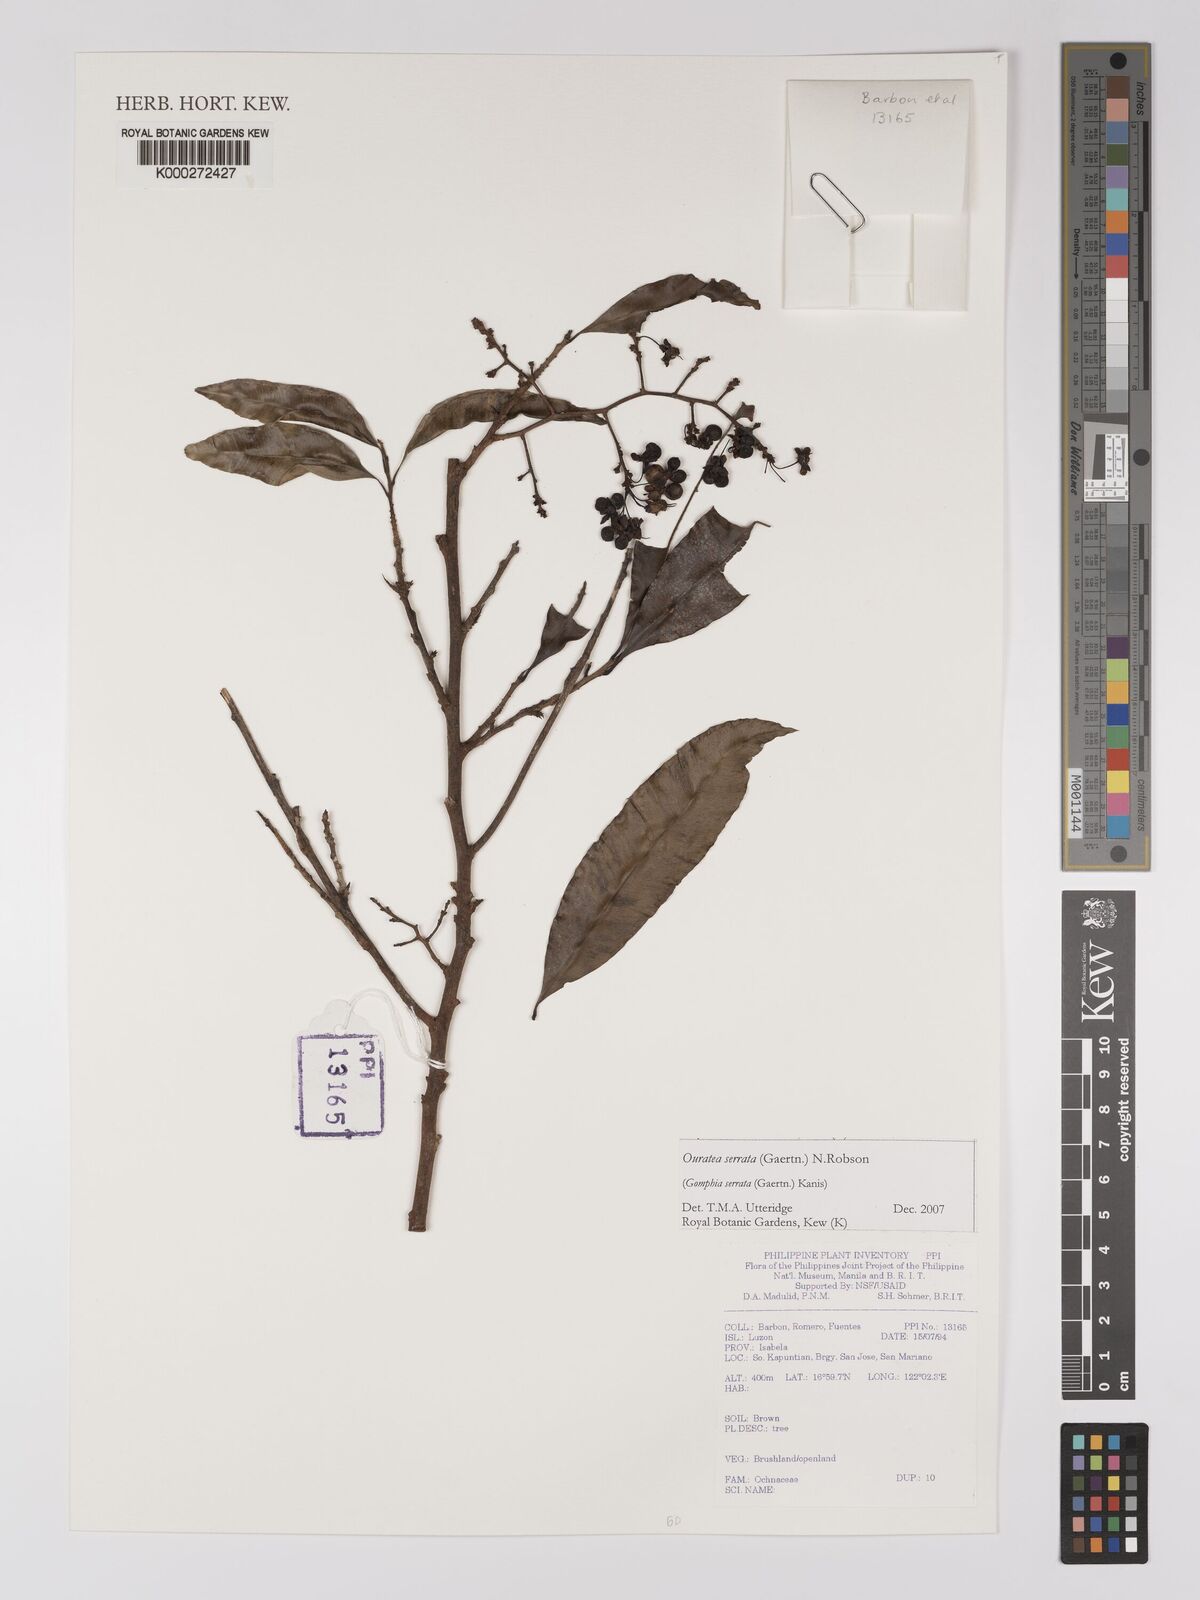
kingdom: Plantae
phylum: Tracheophyta
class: Magnoliopsida
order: Malpighiales
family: Ochnaceae
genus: Gomphia
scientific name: Gomphia serrata
